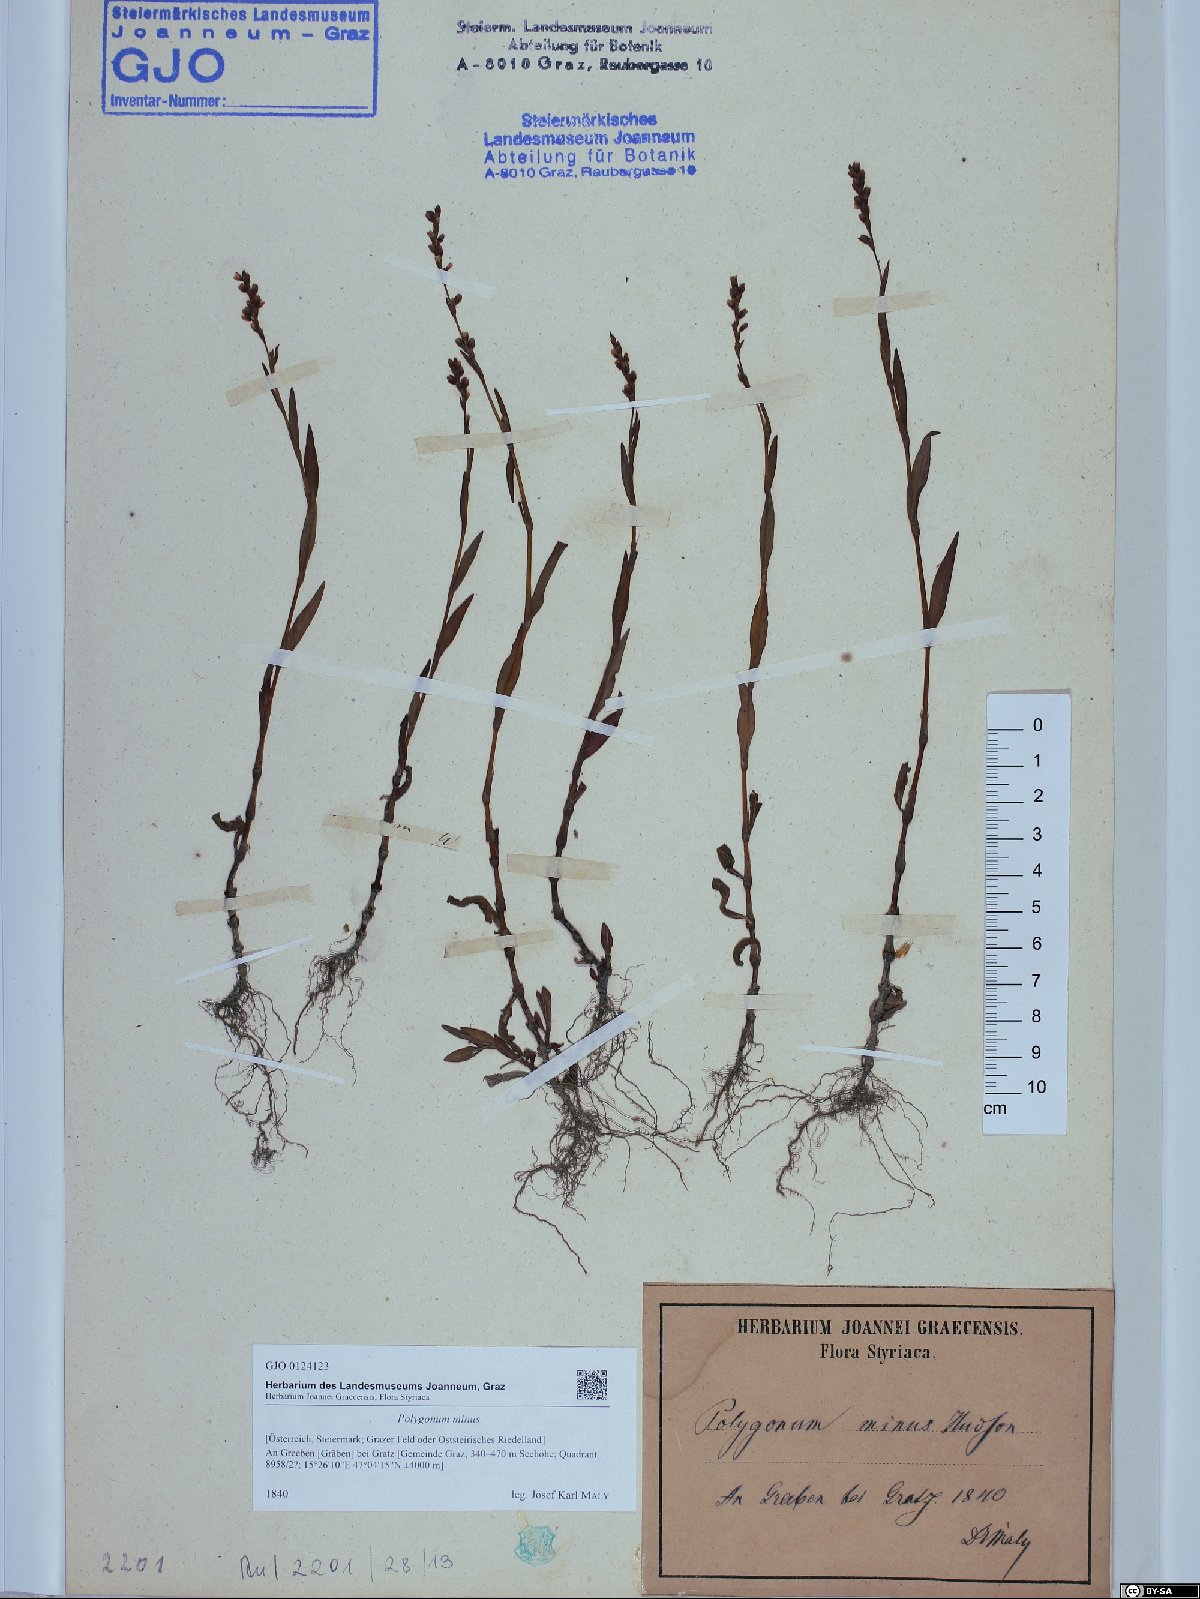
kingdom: Plantae
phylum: Tracheophyta
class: Magnoliopsida
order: Caryophyllales
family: Polygonaceae
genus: Persicaria
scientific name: Persicaria minor
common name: Small water-pepper
